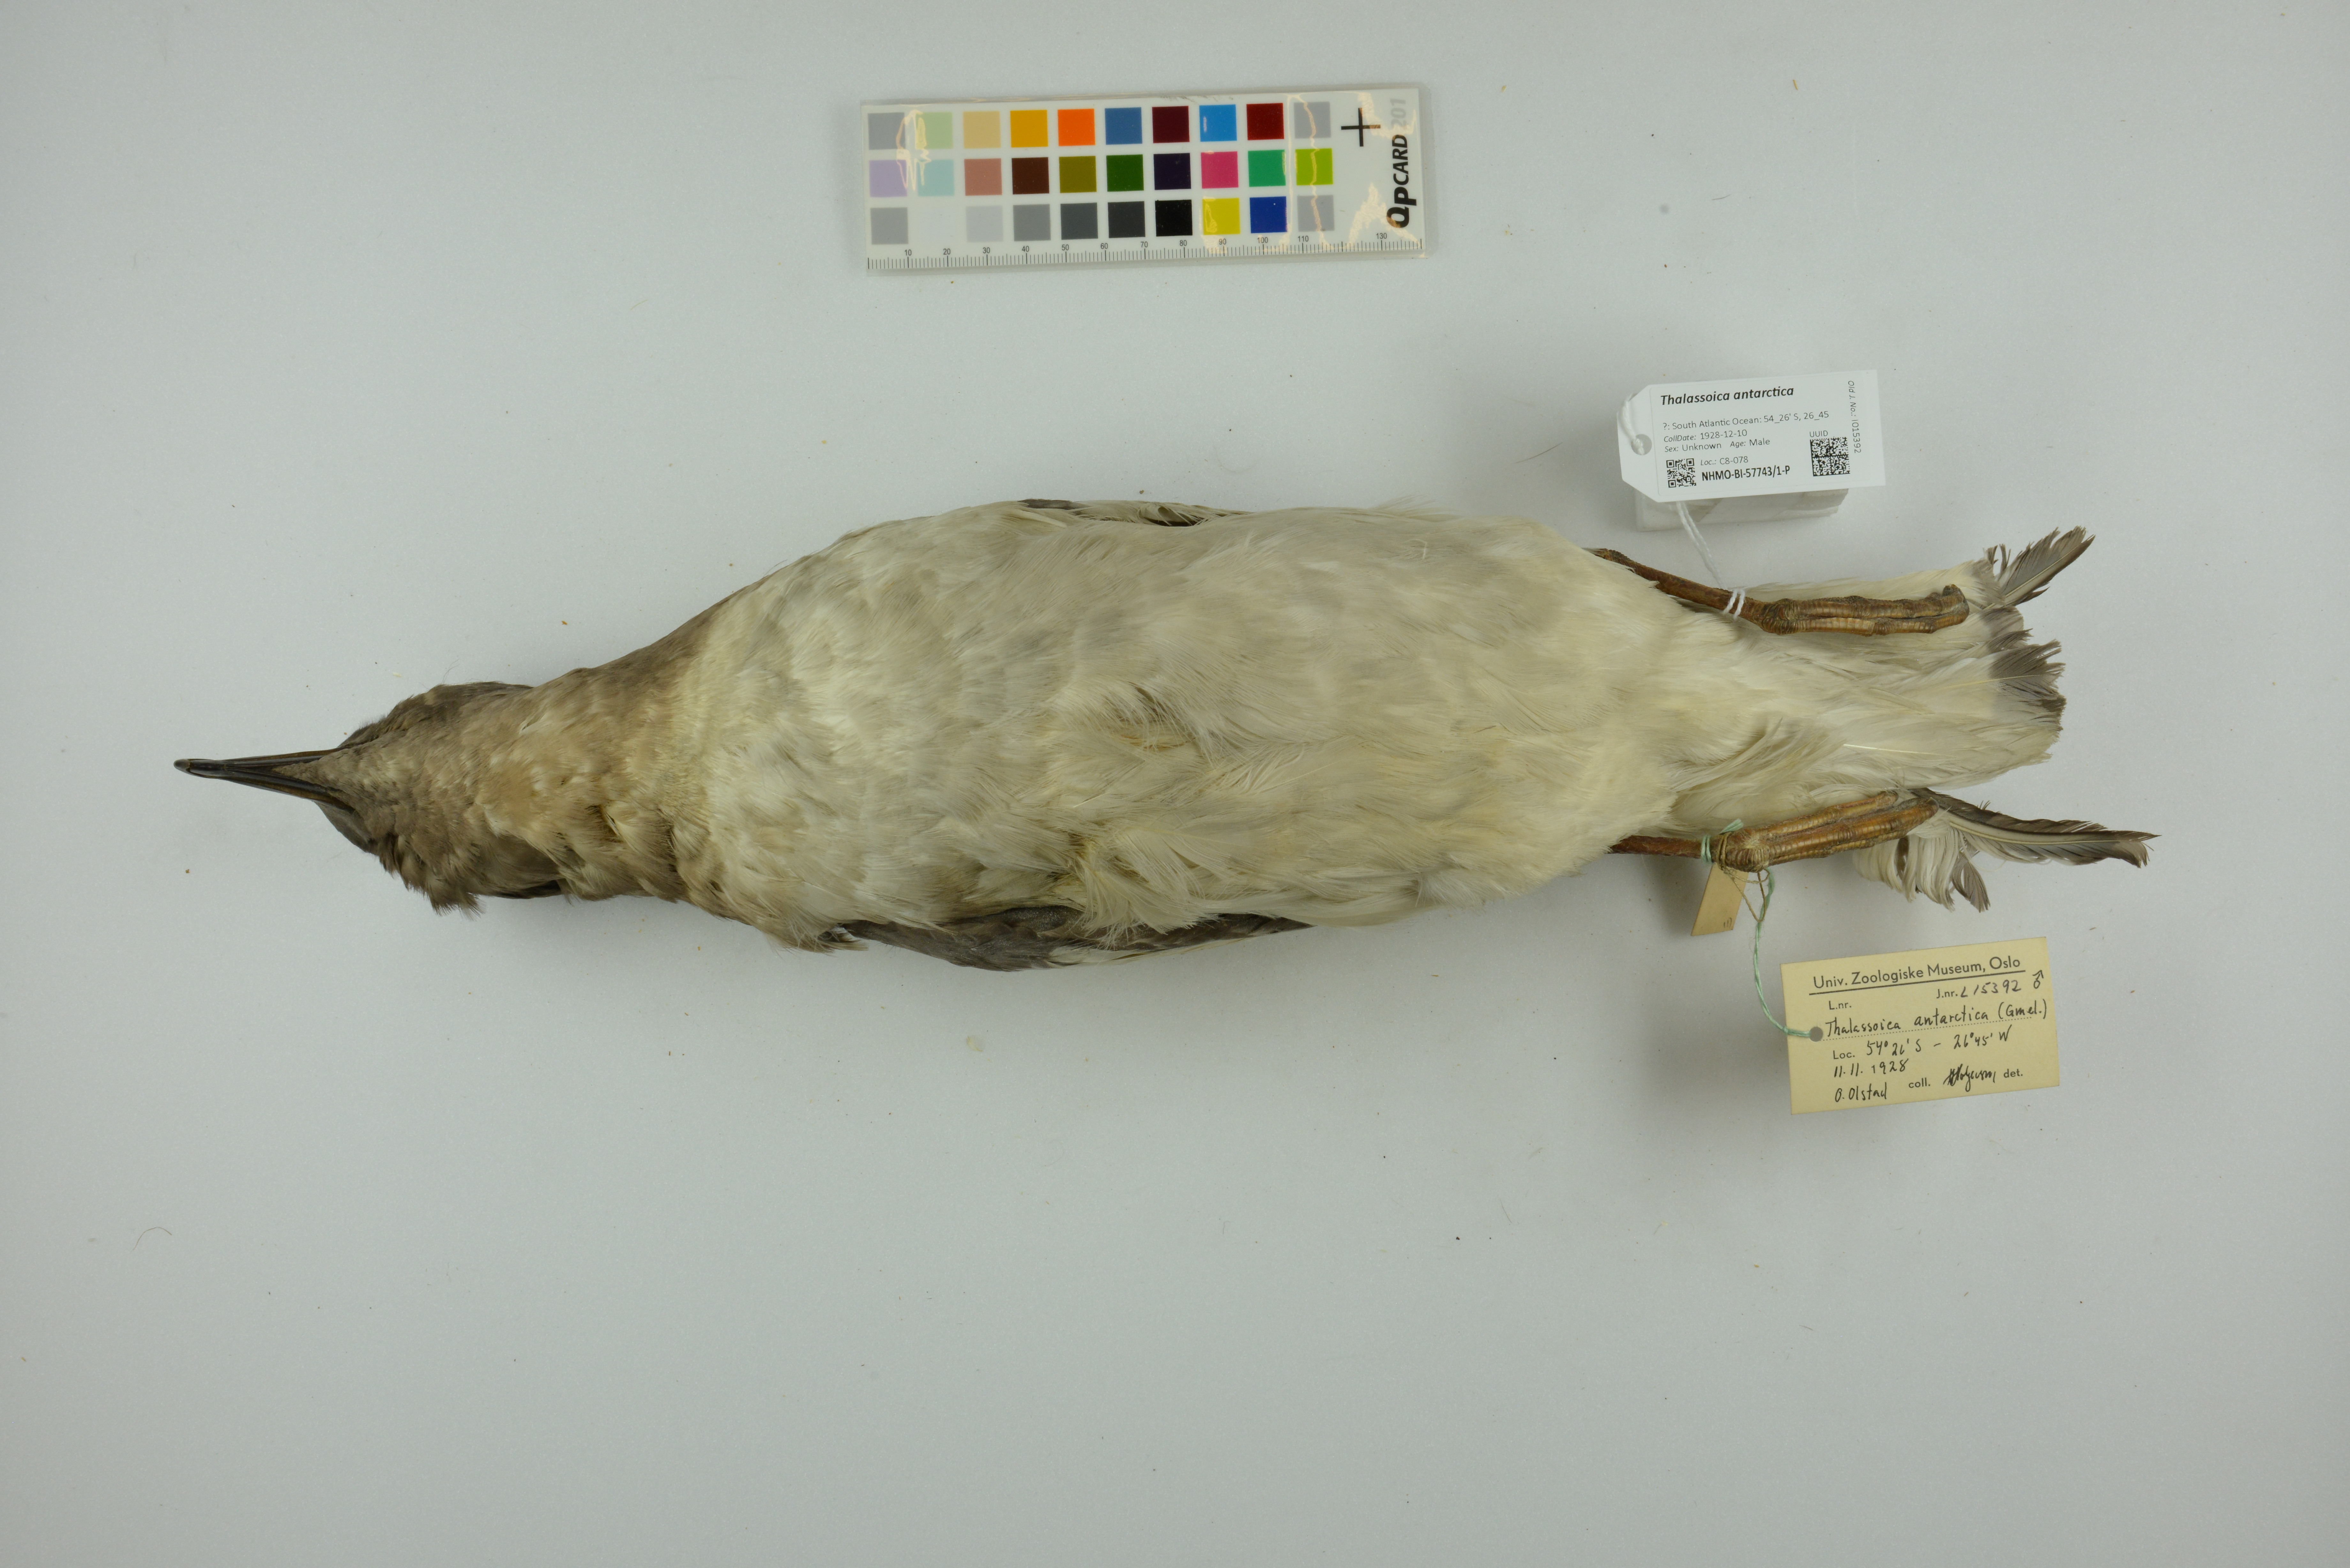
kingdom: Animalia
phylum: Chordata
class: Aves
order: Procellariiformes
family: Procellariidae
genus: Thalassoica
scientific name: Thalassoica antarctica
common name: Antarctic petrel
